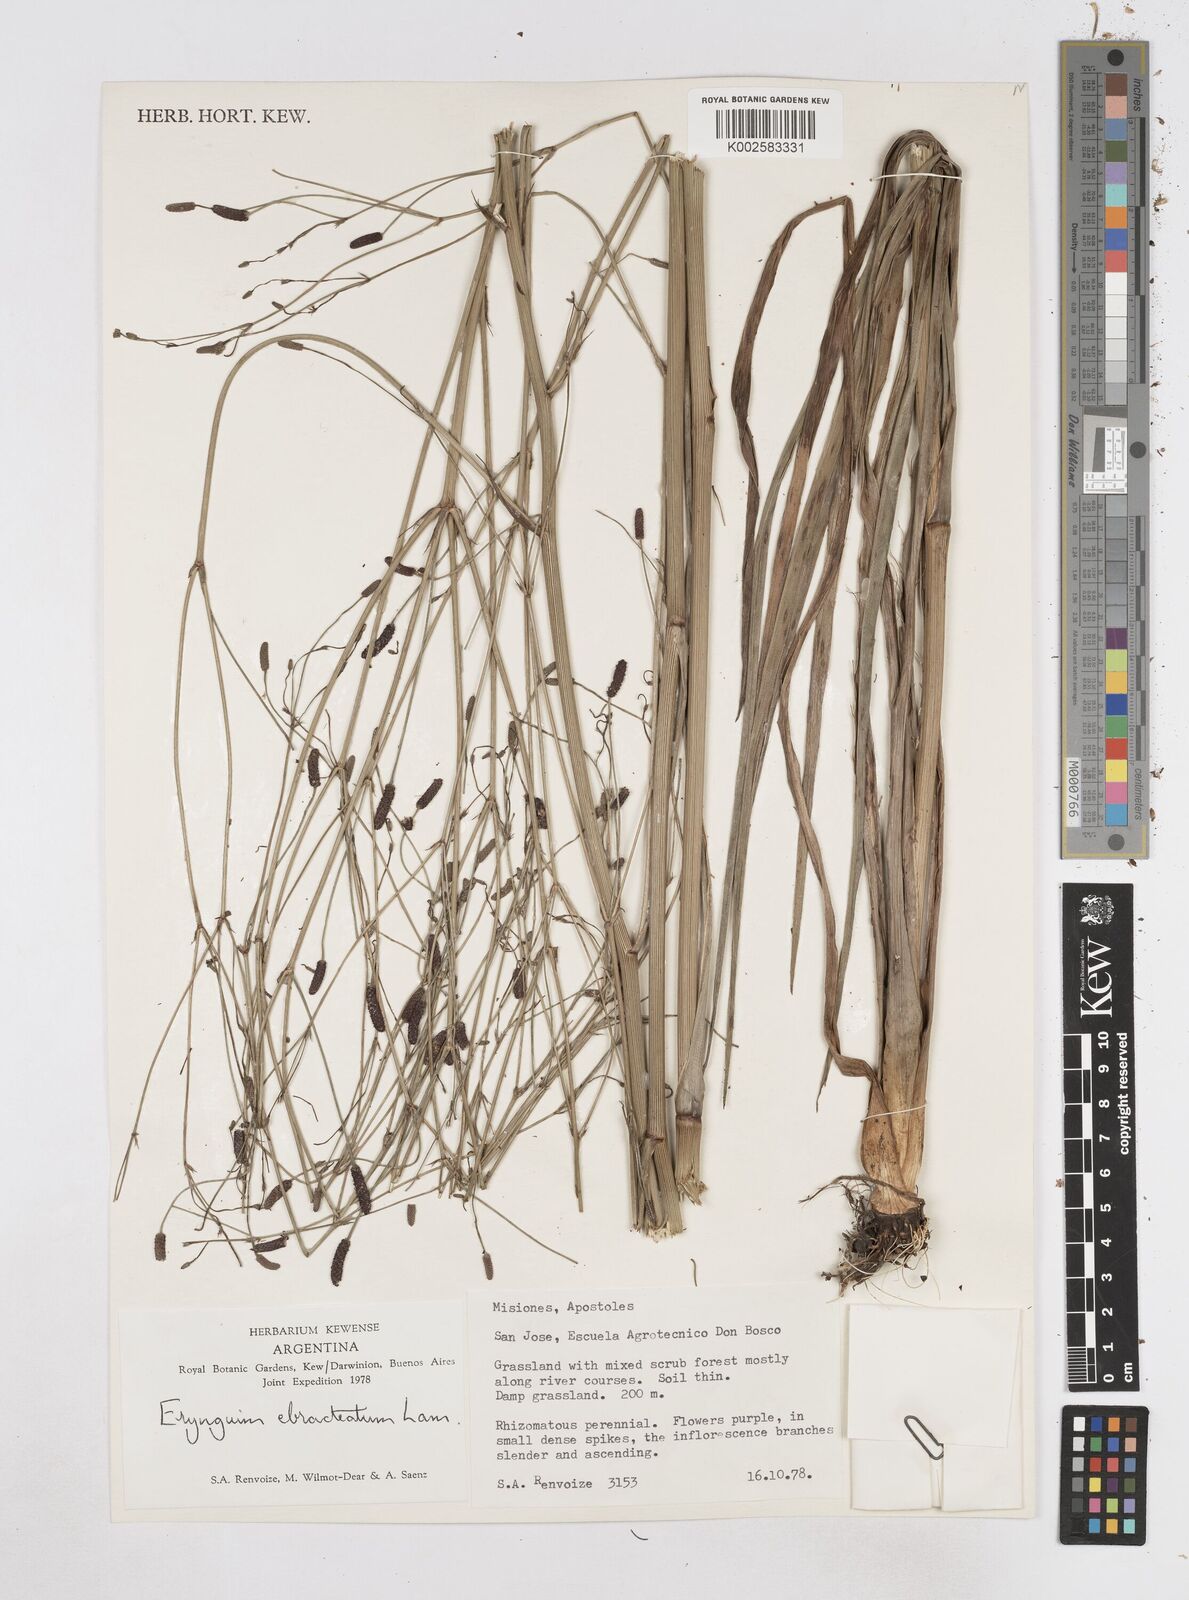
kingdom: Plantae
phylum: Tracheophyta
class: Magnoliopsida
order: Apiales
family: Apiaceae
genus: Eryngium
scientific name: Eryngium ebracteatum
